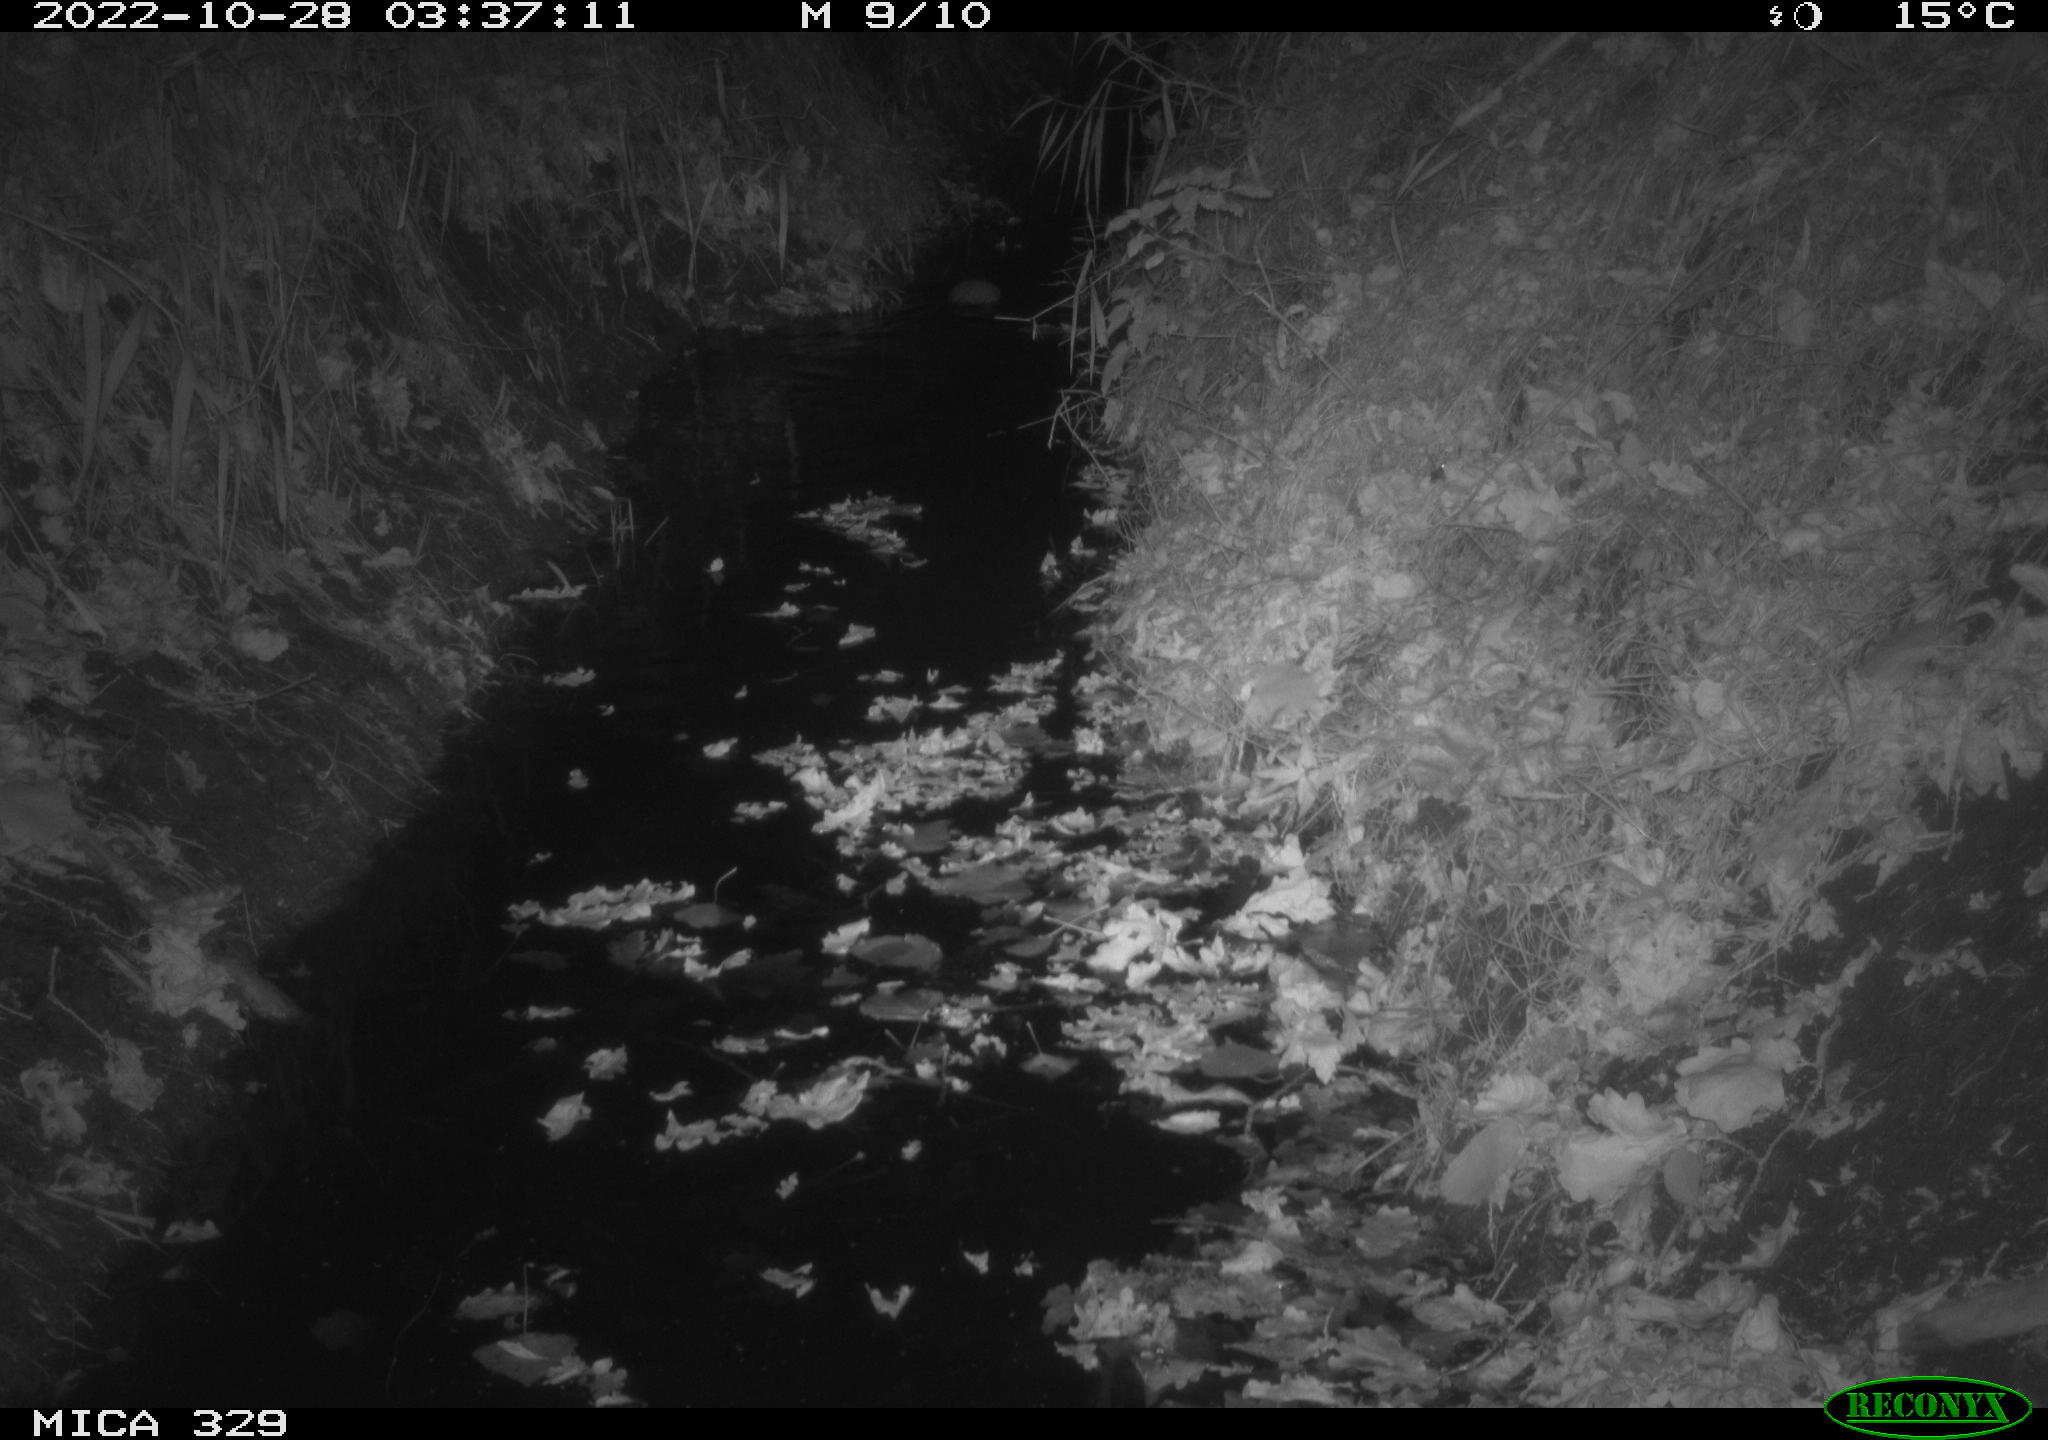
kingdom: Animalia
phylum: Chordata
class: Mammalia
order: Rodentia
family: Cricetidae
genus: Ondatra
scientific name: Ondatra zibethicus
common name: Muskrat
